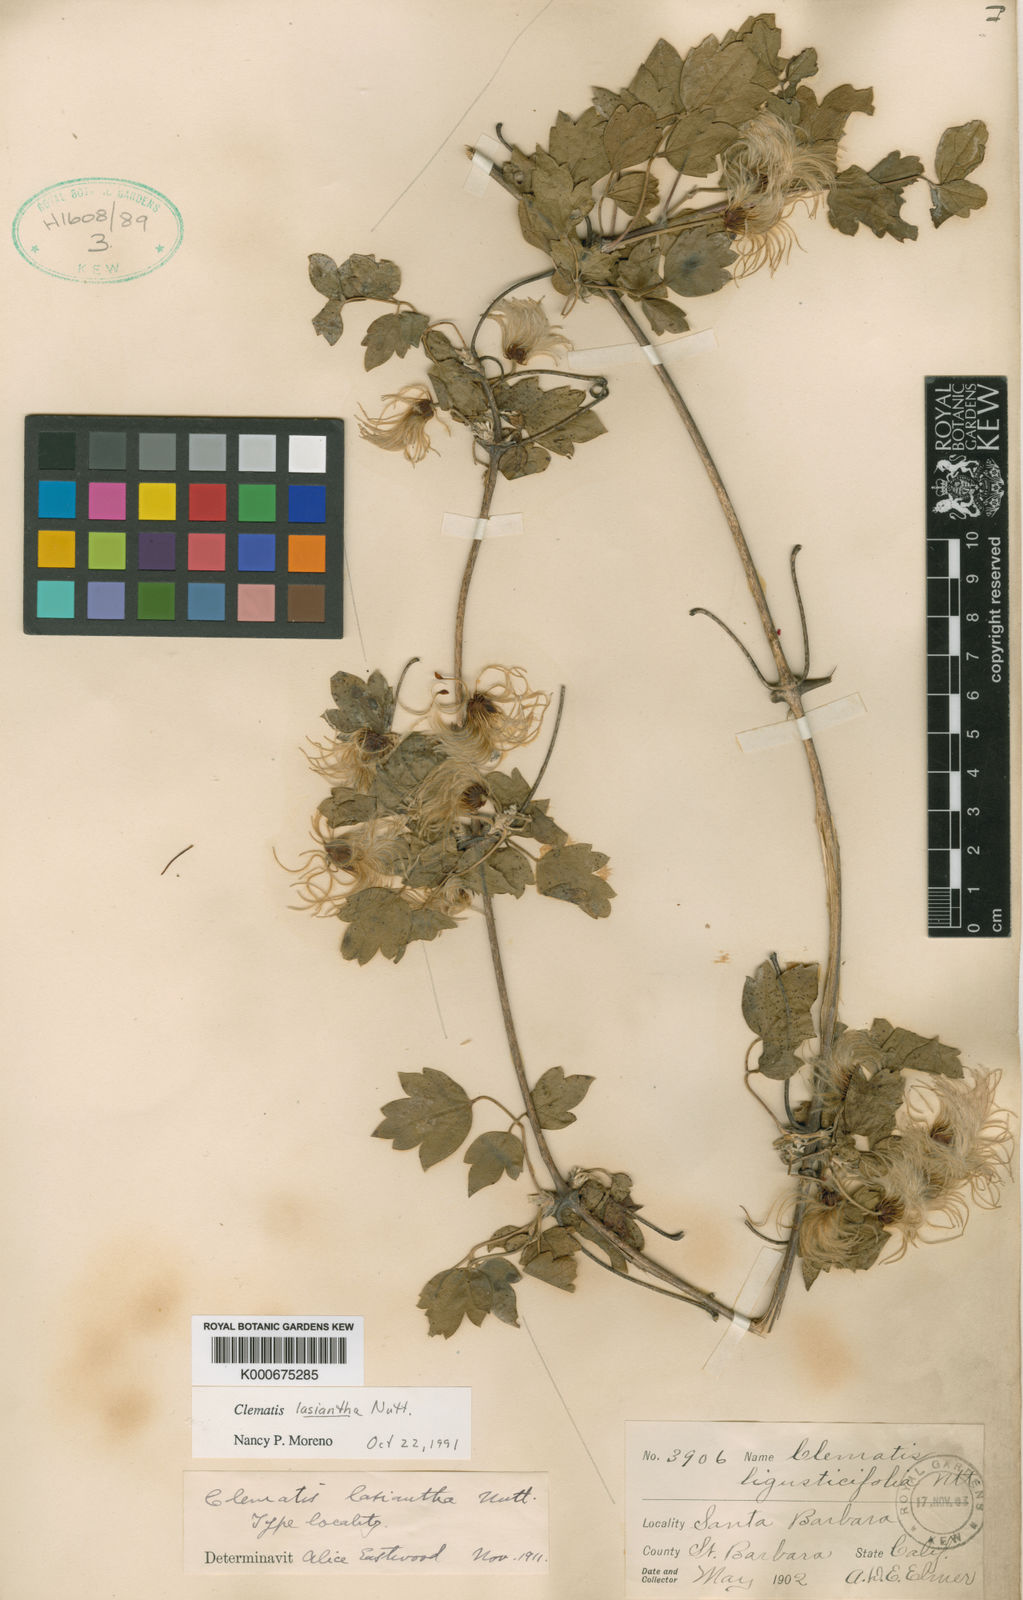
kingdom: Plantae
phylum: Tracheophyta
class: Magnoliopsida
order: Ranunculales
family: Ranunculaceae
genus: Clematis
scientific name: Clematis lasiantha
